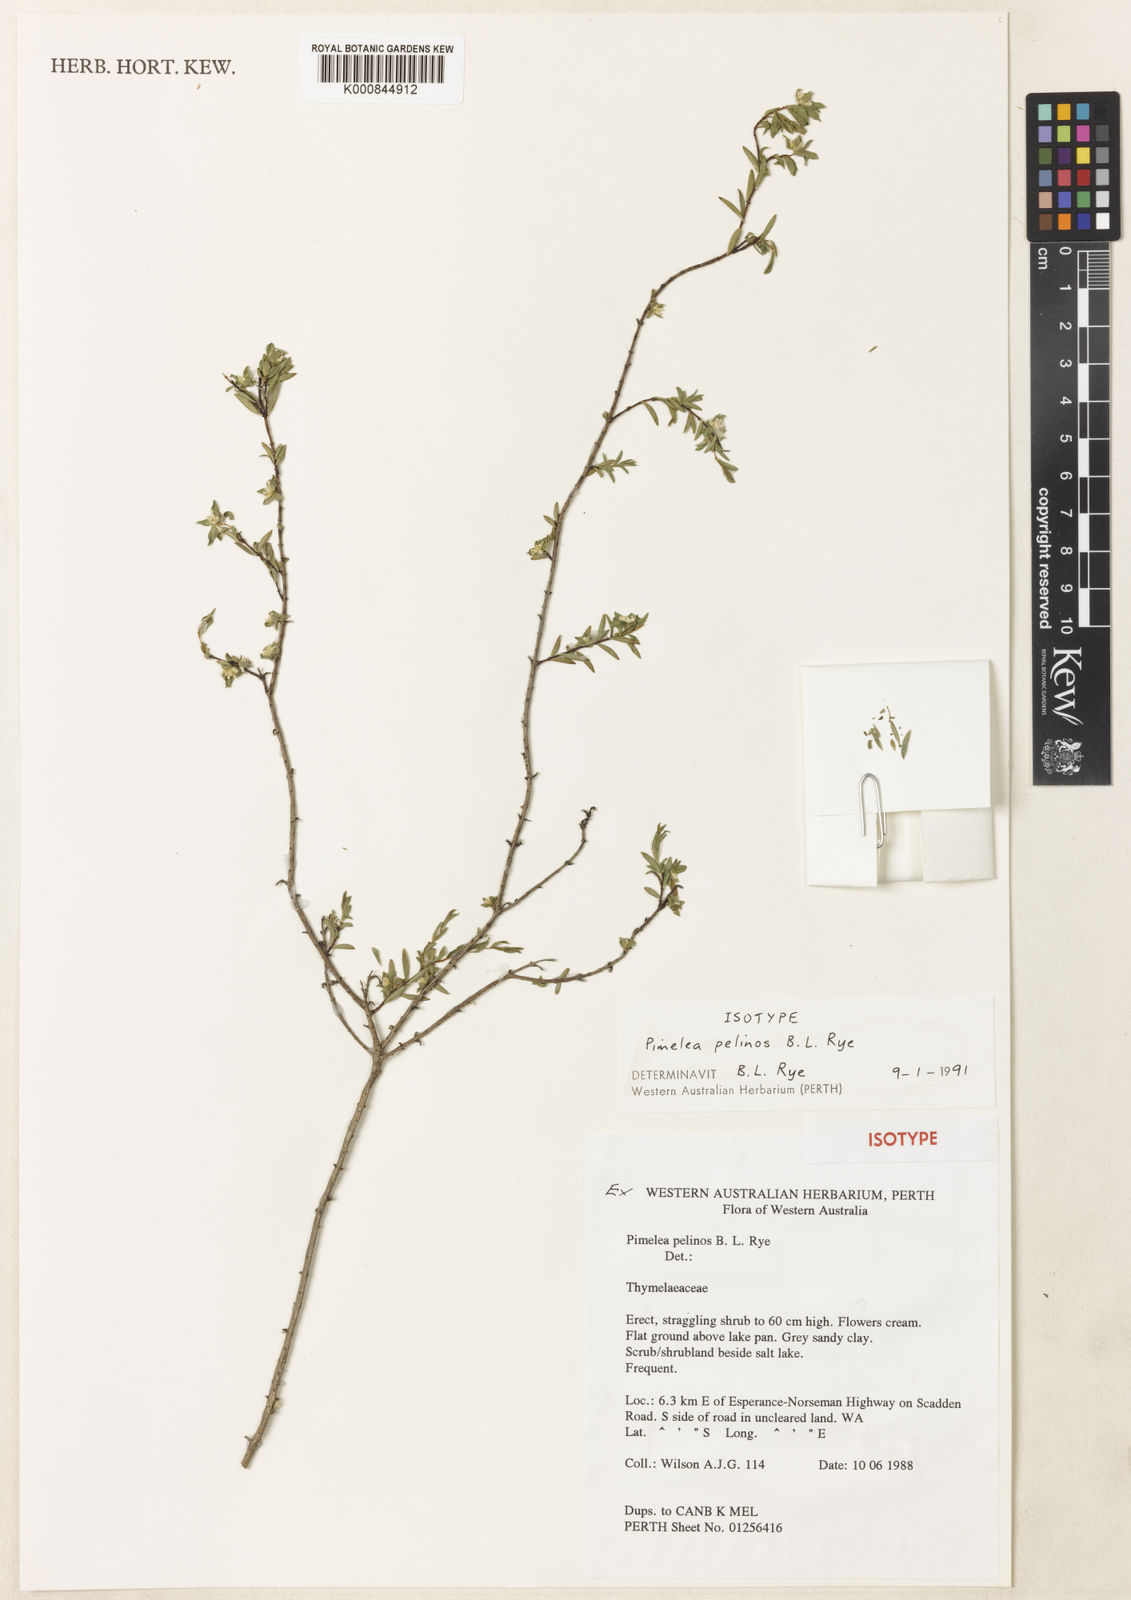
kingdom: Plantae
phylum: Tracheophyta
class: Magnoliopsida
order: Malvales
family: Thymelaeaceae
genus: Pimelea
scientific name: Pimelea pelinos
